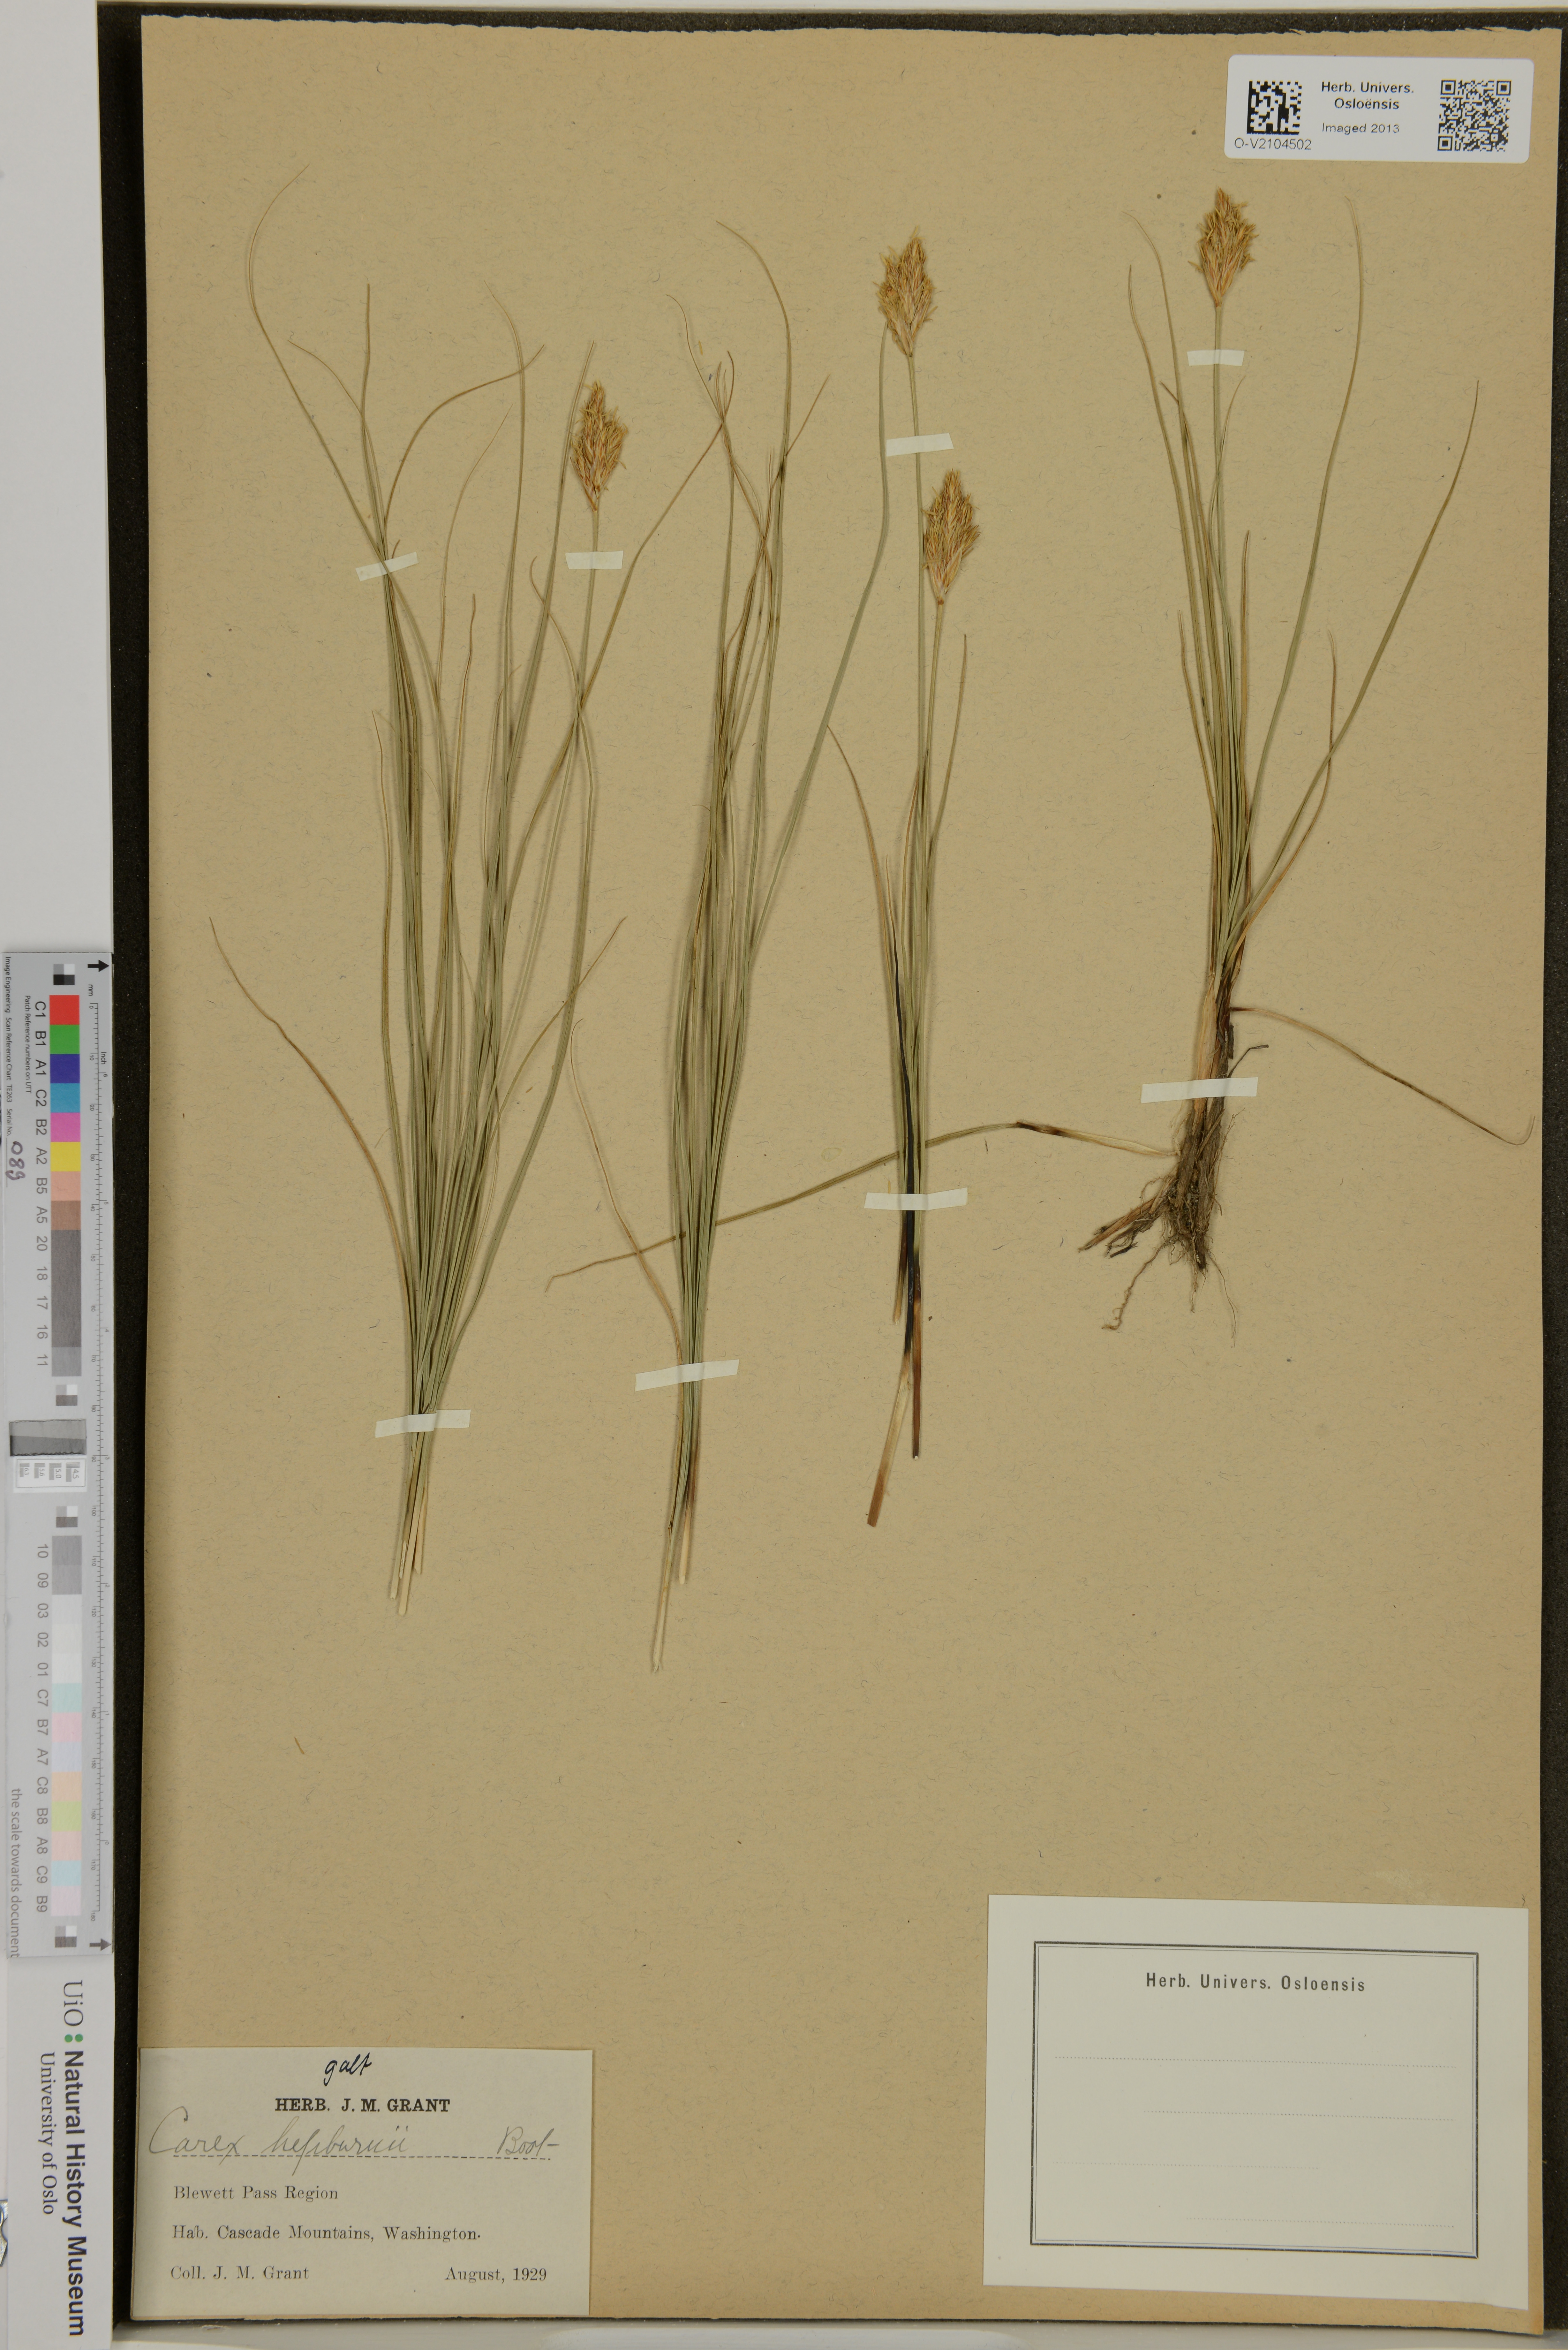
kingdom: Plantae
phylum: Tracheophyta
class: Liliopsida
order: Poales
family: Cyperaceae
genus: Carex
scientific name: Carex nardina
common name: Nard sedge
